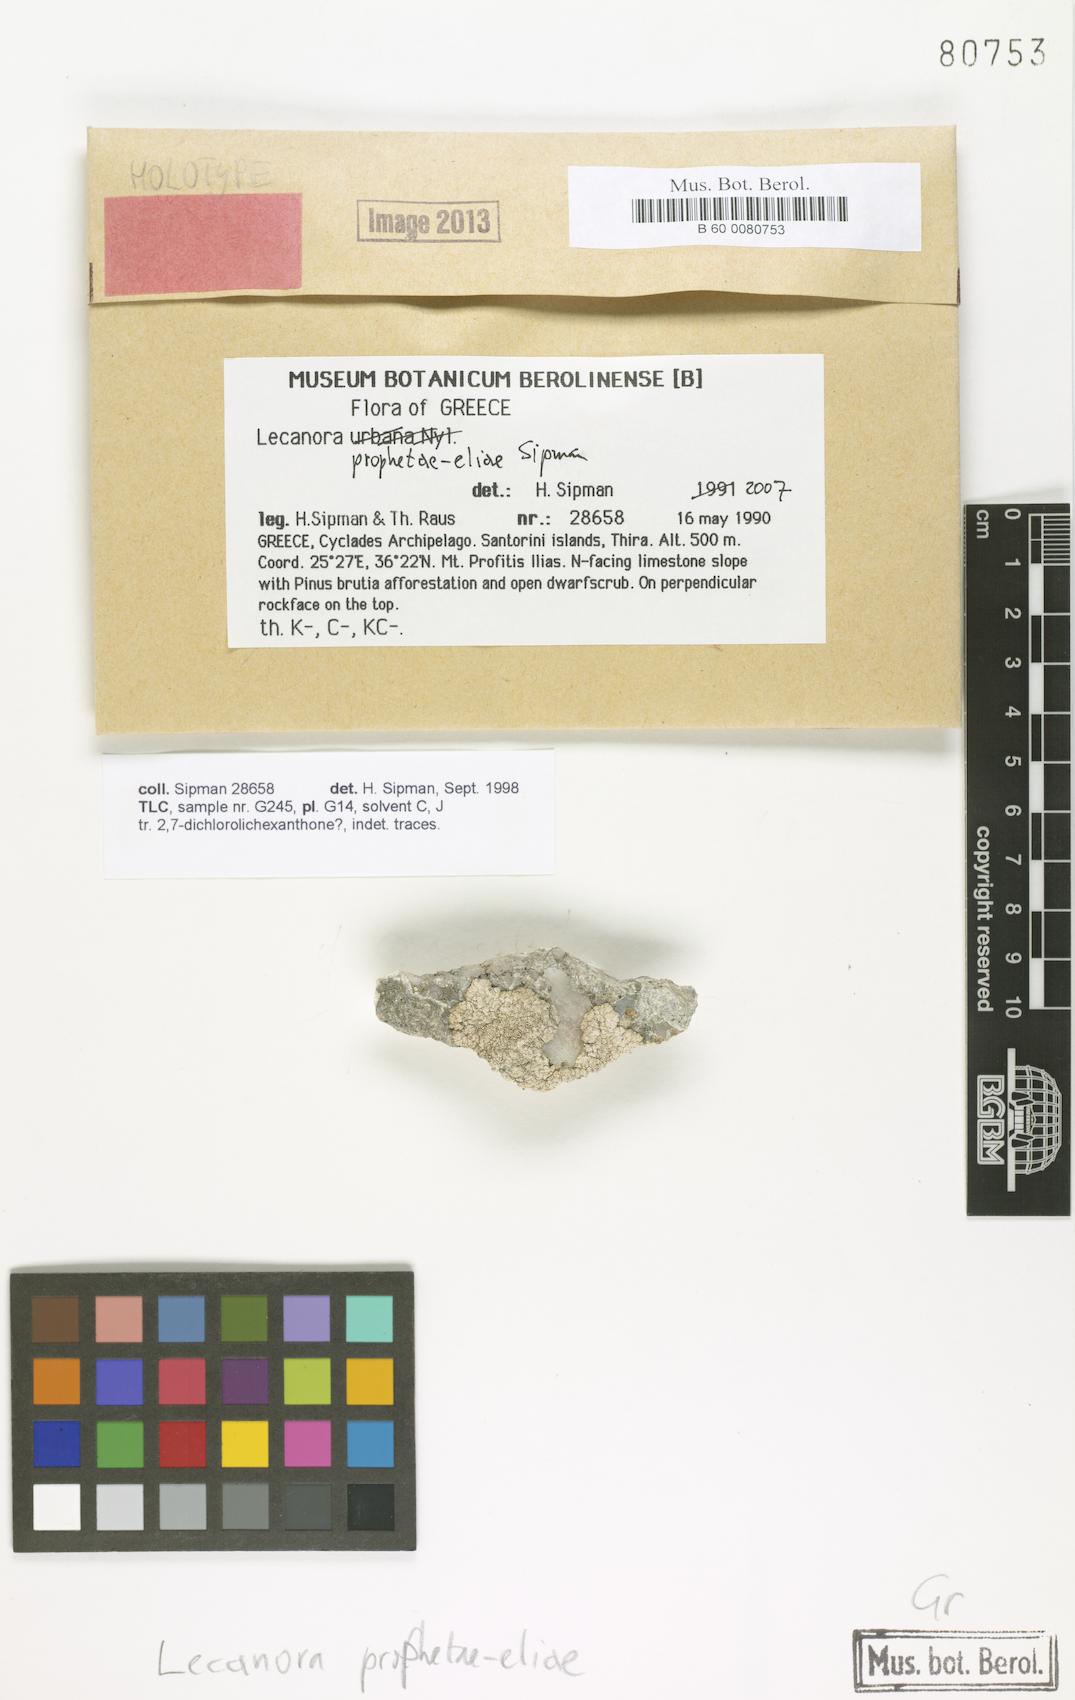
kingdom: Fungi
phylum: Ascomycota
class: Lecanoromycetes
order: Lecanorales
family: Lecanoraceae
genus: Polyozosia
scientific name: Polyozosia prophetae-eliae
